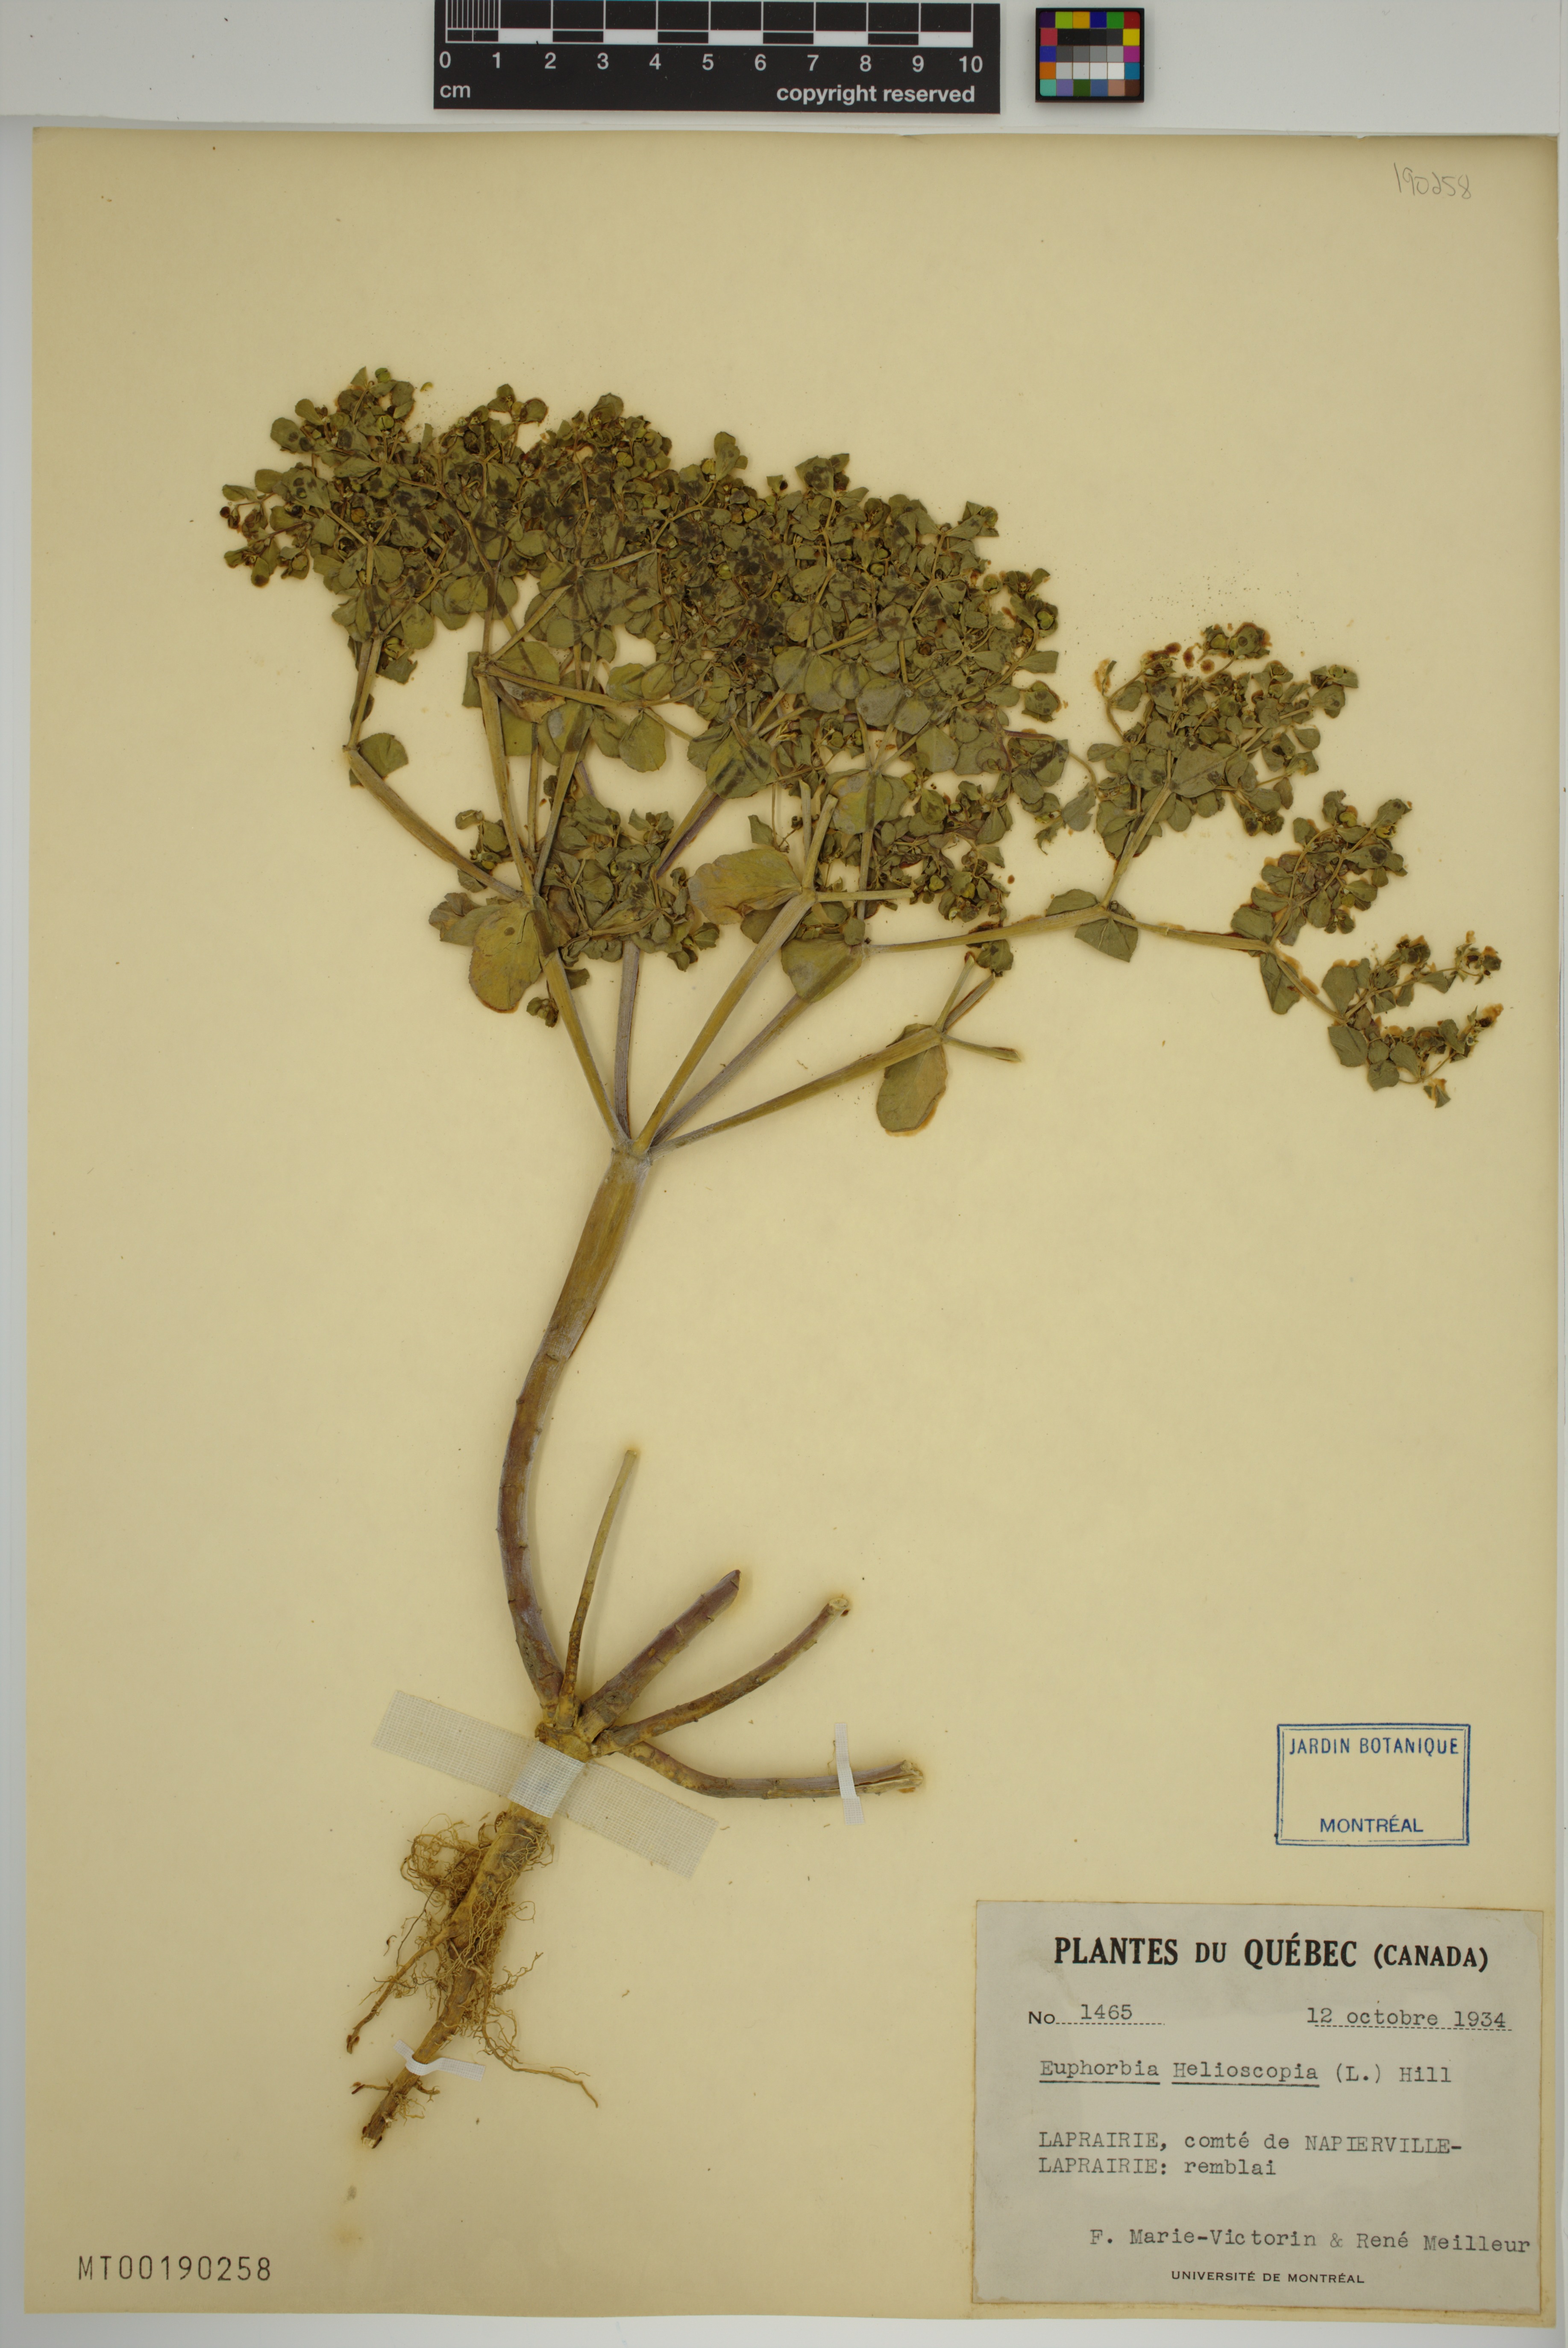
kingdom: Plantae
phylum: Tracheophyta
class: Magnoliopsida
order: Malpighiales
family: Euphorbiaceae
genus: Euphorbia
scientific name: Euphorbia helioscopia
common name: Sun spurge
